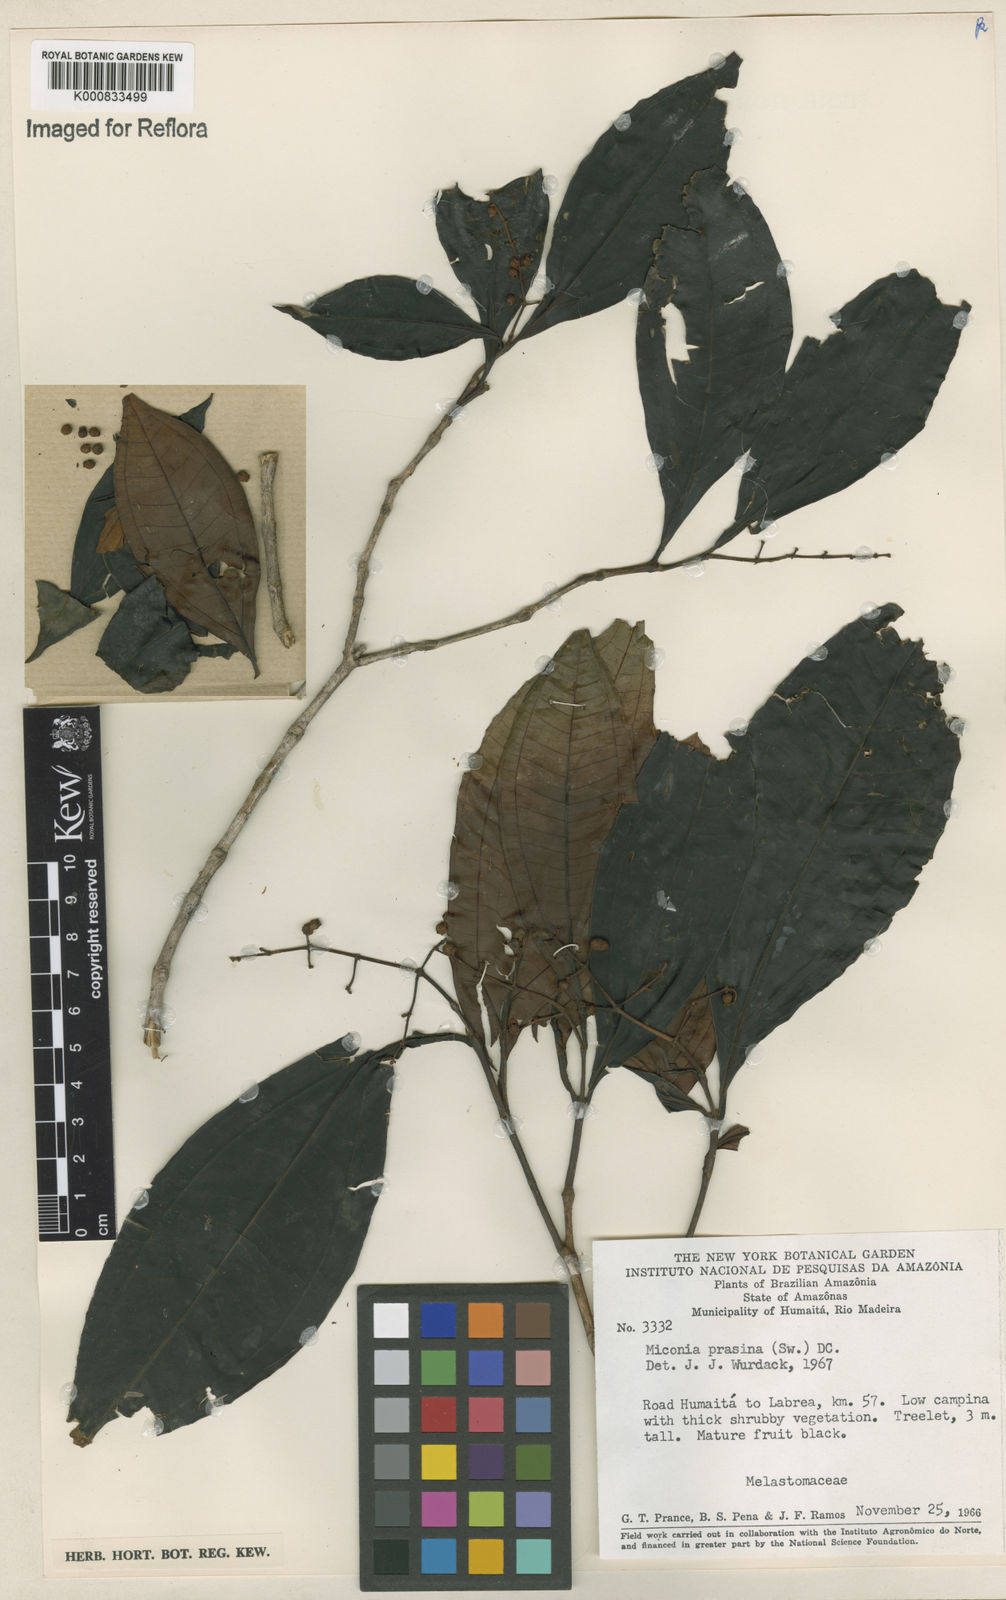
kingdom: Plantae
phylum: Tracheophyta
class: Magnoliopsida
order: Myrtales
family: Melastomataceae
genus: Miconia
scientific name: Miconia prasina
